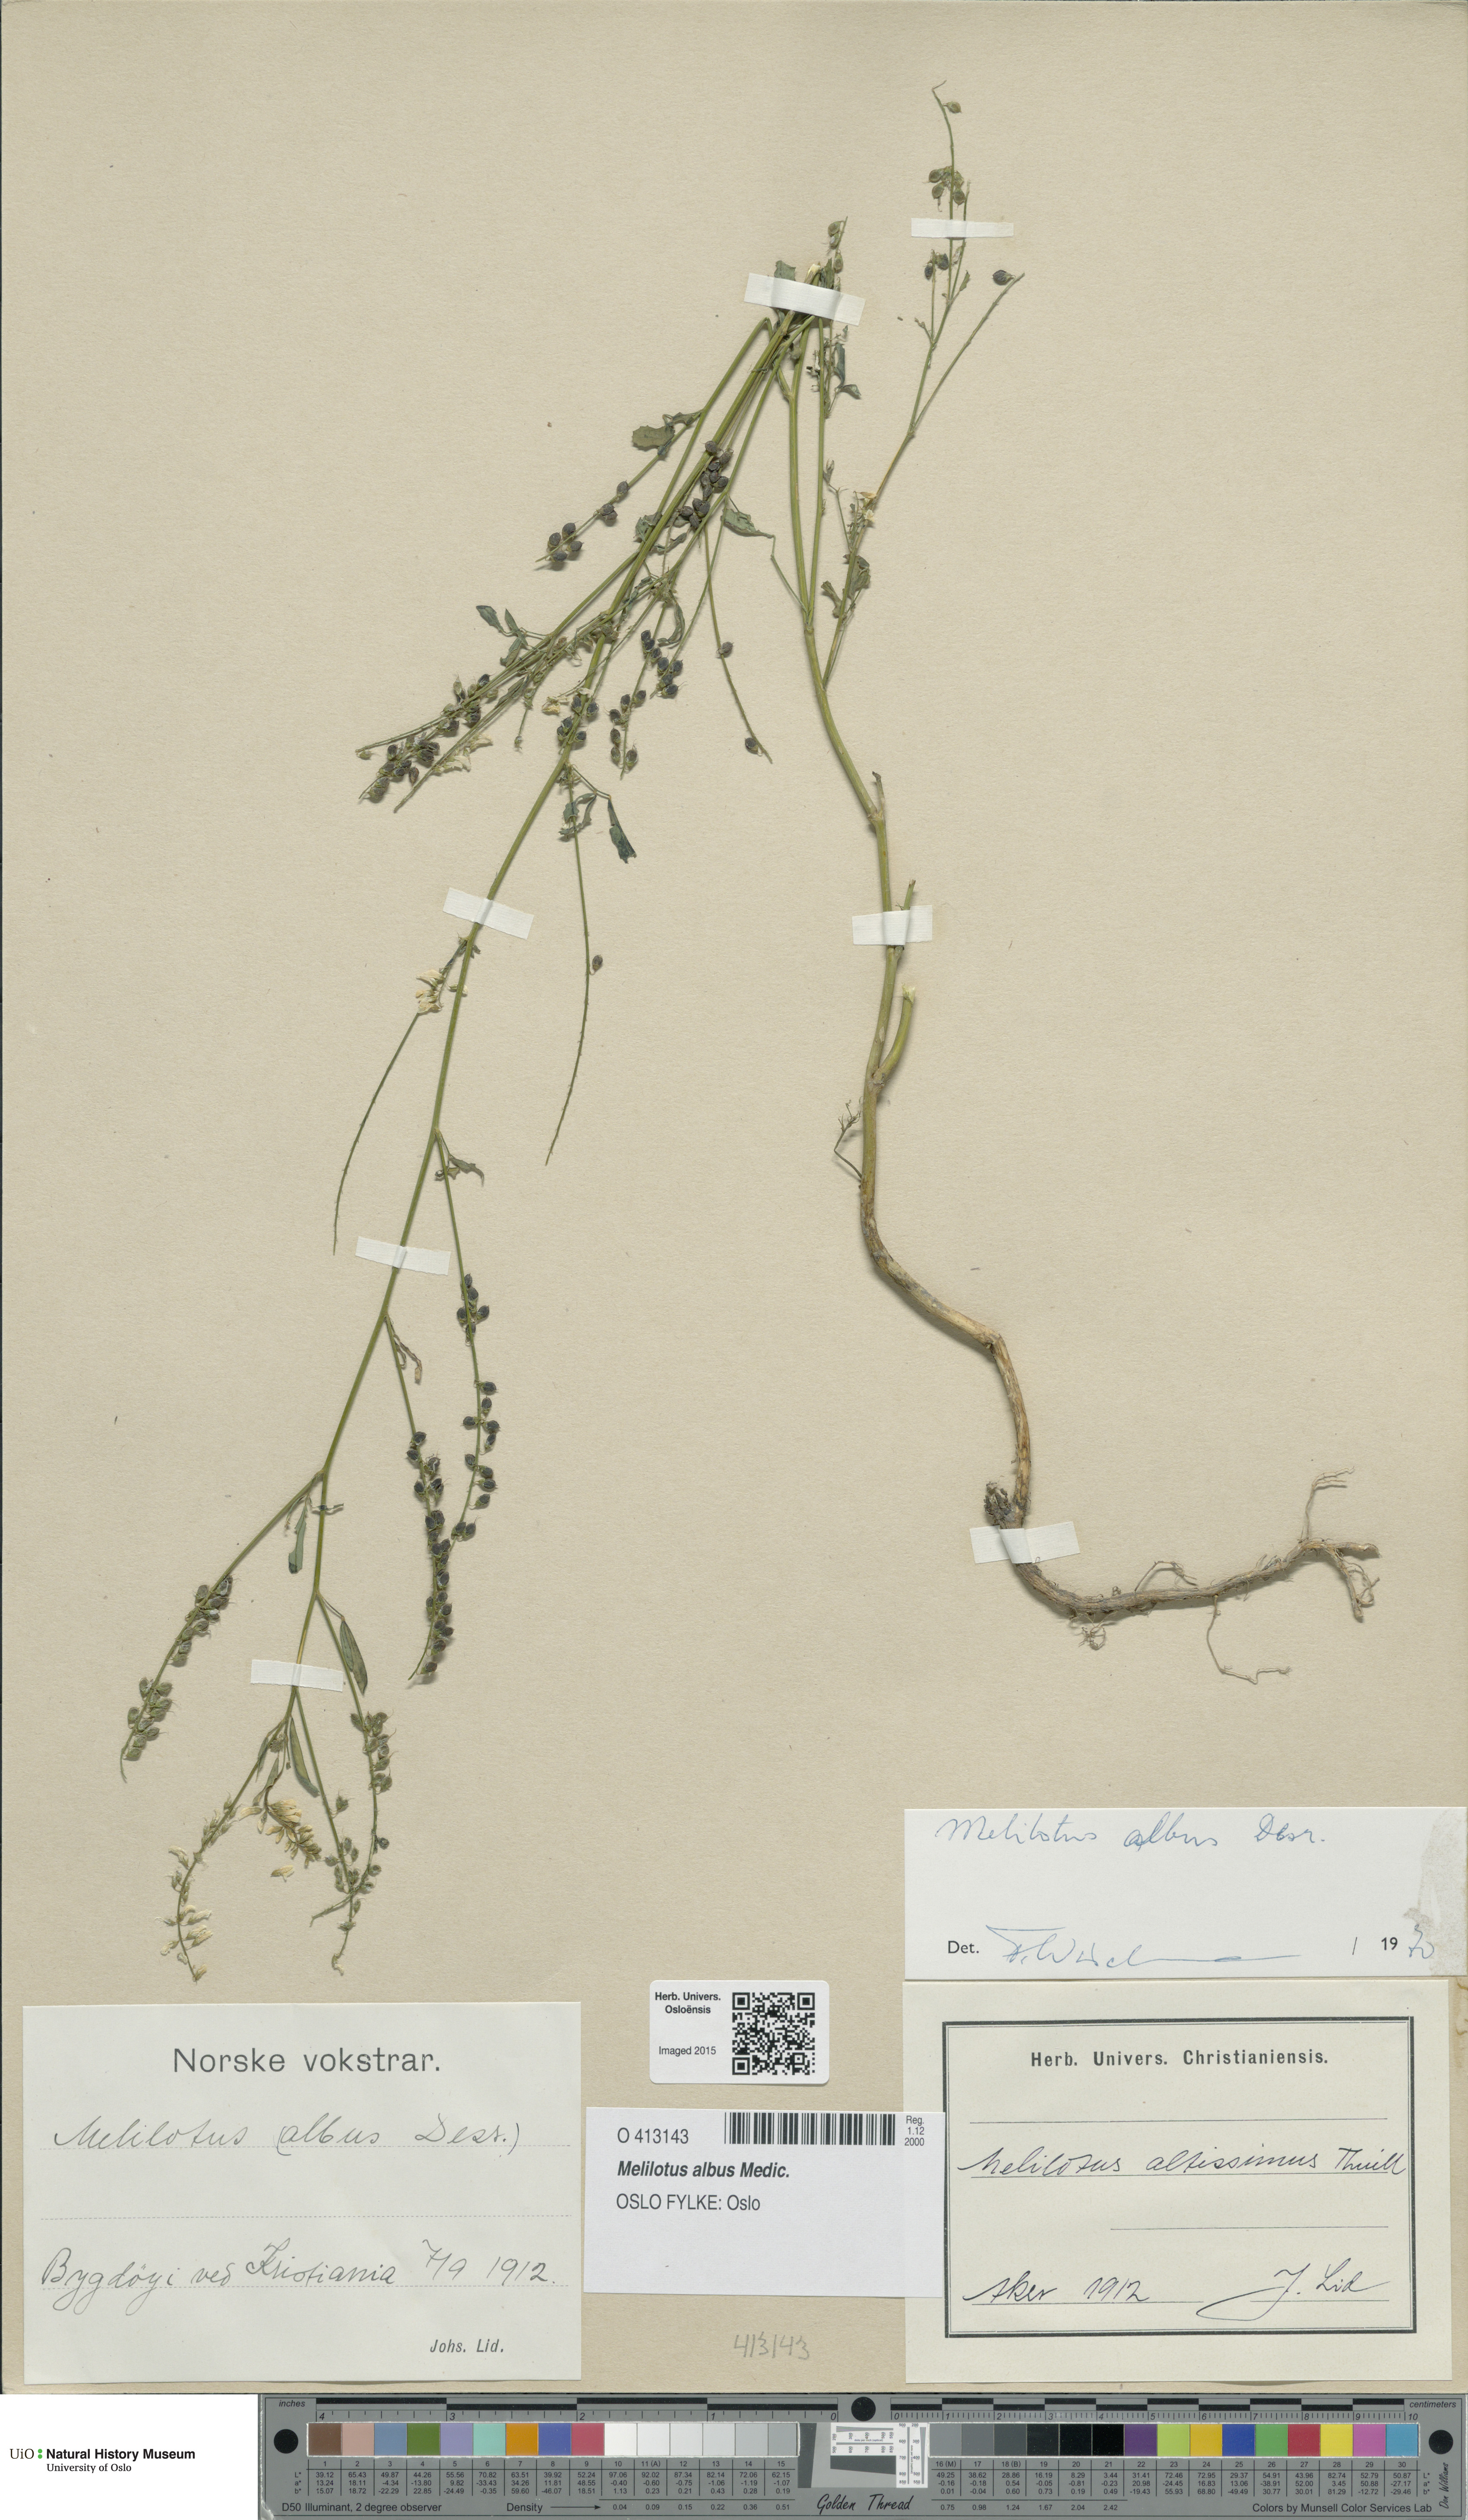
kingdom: Plantae
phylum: Tracheophyta
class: Magnoliopsida
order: Fabales
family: Fabaceae
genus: Melilotus
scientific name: Melilotus albus
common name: White melilot
